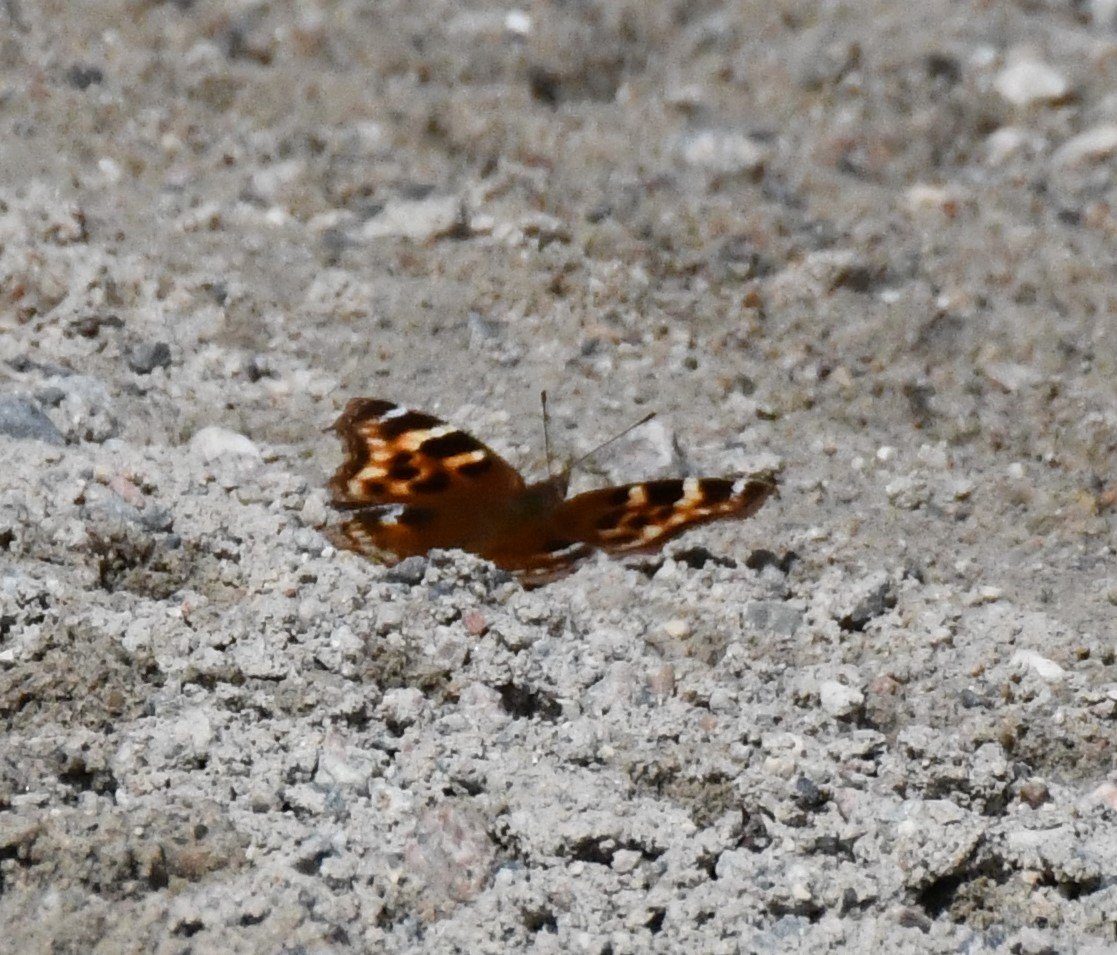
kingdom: Animalia
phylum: Arthropoda
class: Insecta
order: Lepidoptera
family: Nymphalidae
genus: Polygonia
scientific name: Polygonia vaualbum
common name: Compton Tortoiseshell
